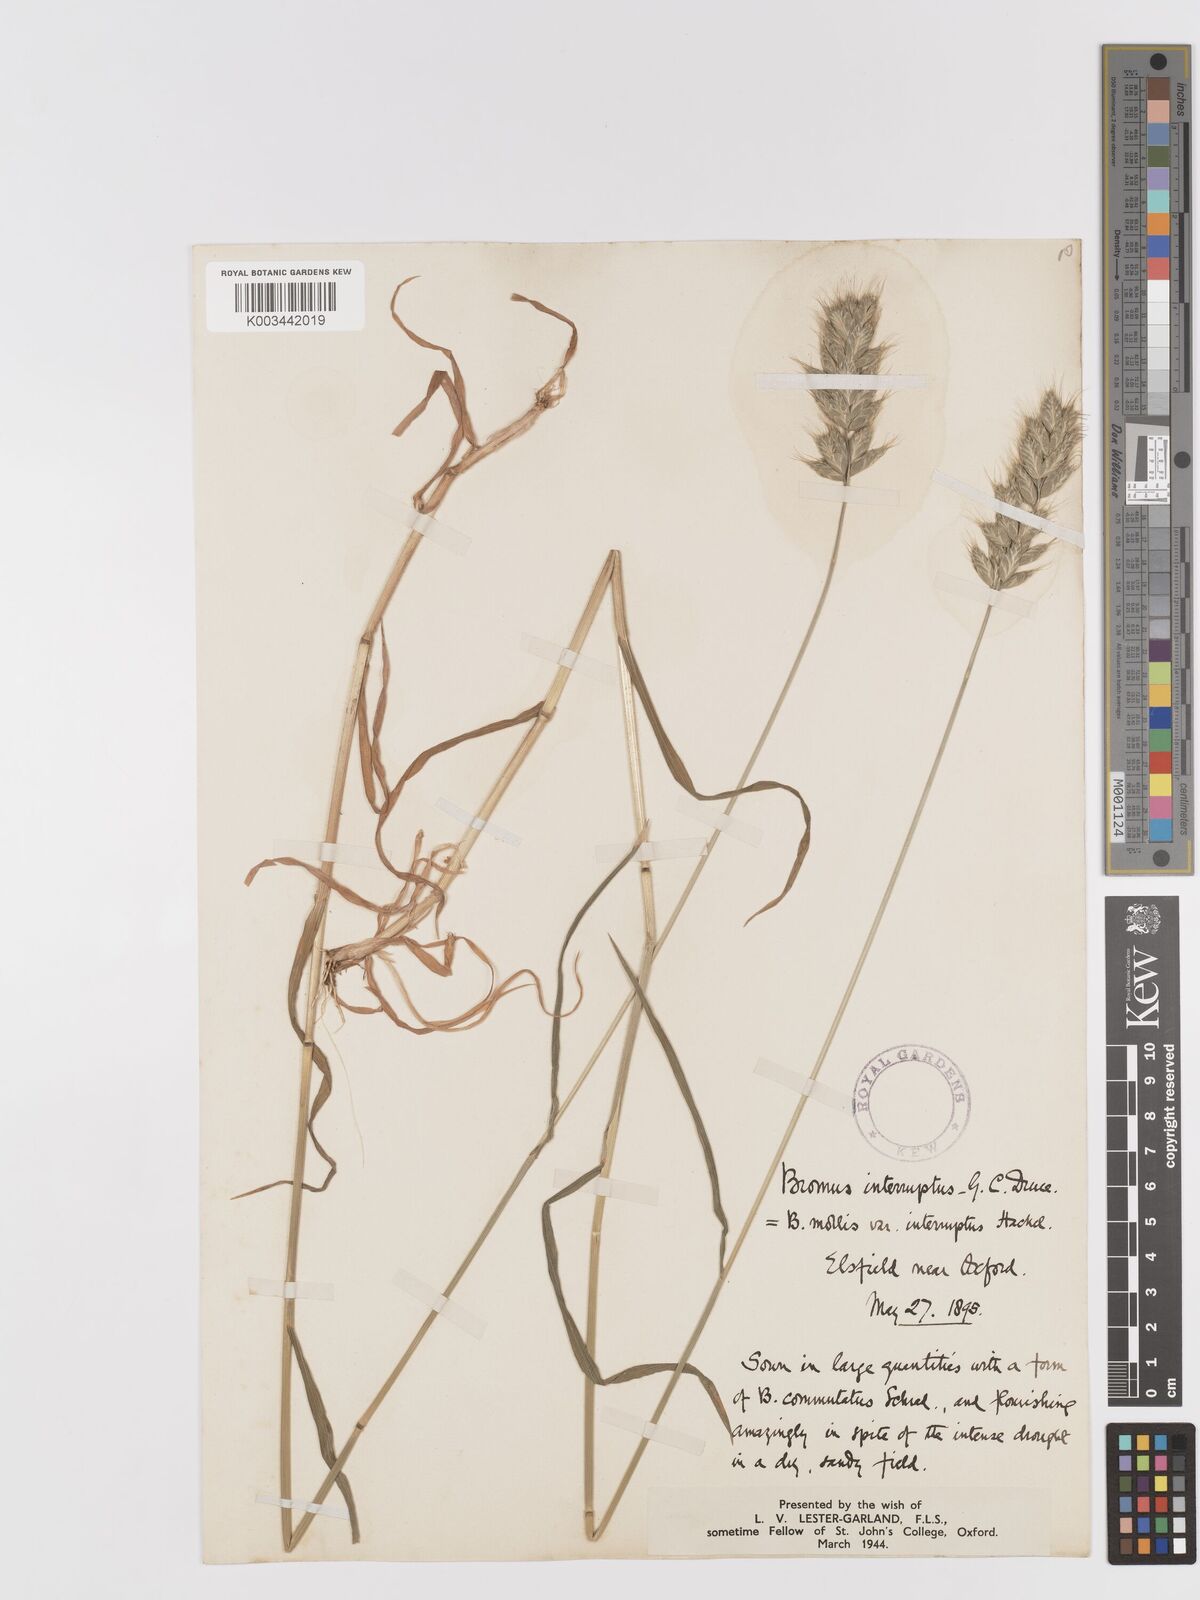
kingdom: Plantae
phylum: Tracheophyta
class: Liliopsida
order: Poales
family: Poaceae
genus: Bromus
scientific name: Bromus interruptus
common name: Interrupted brome
